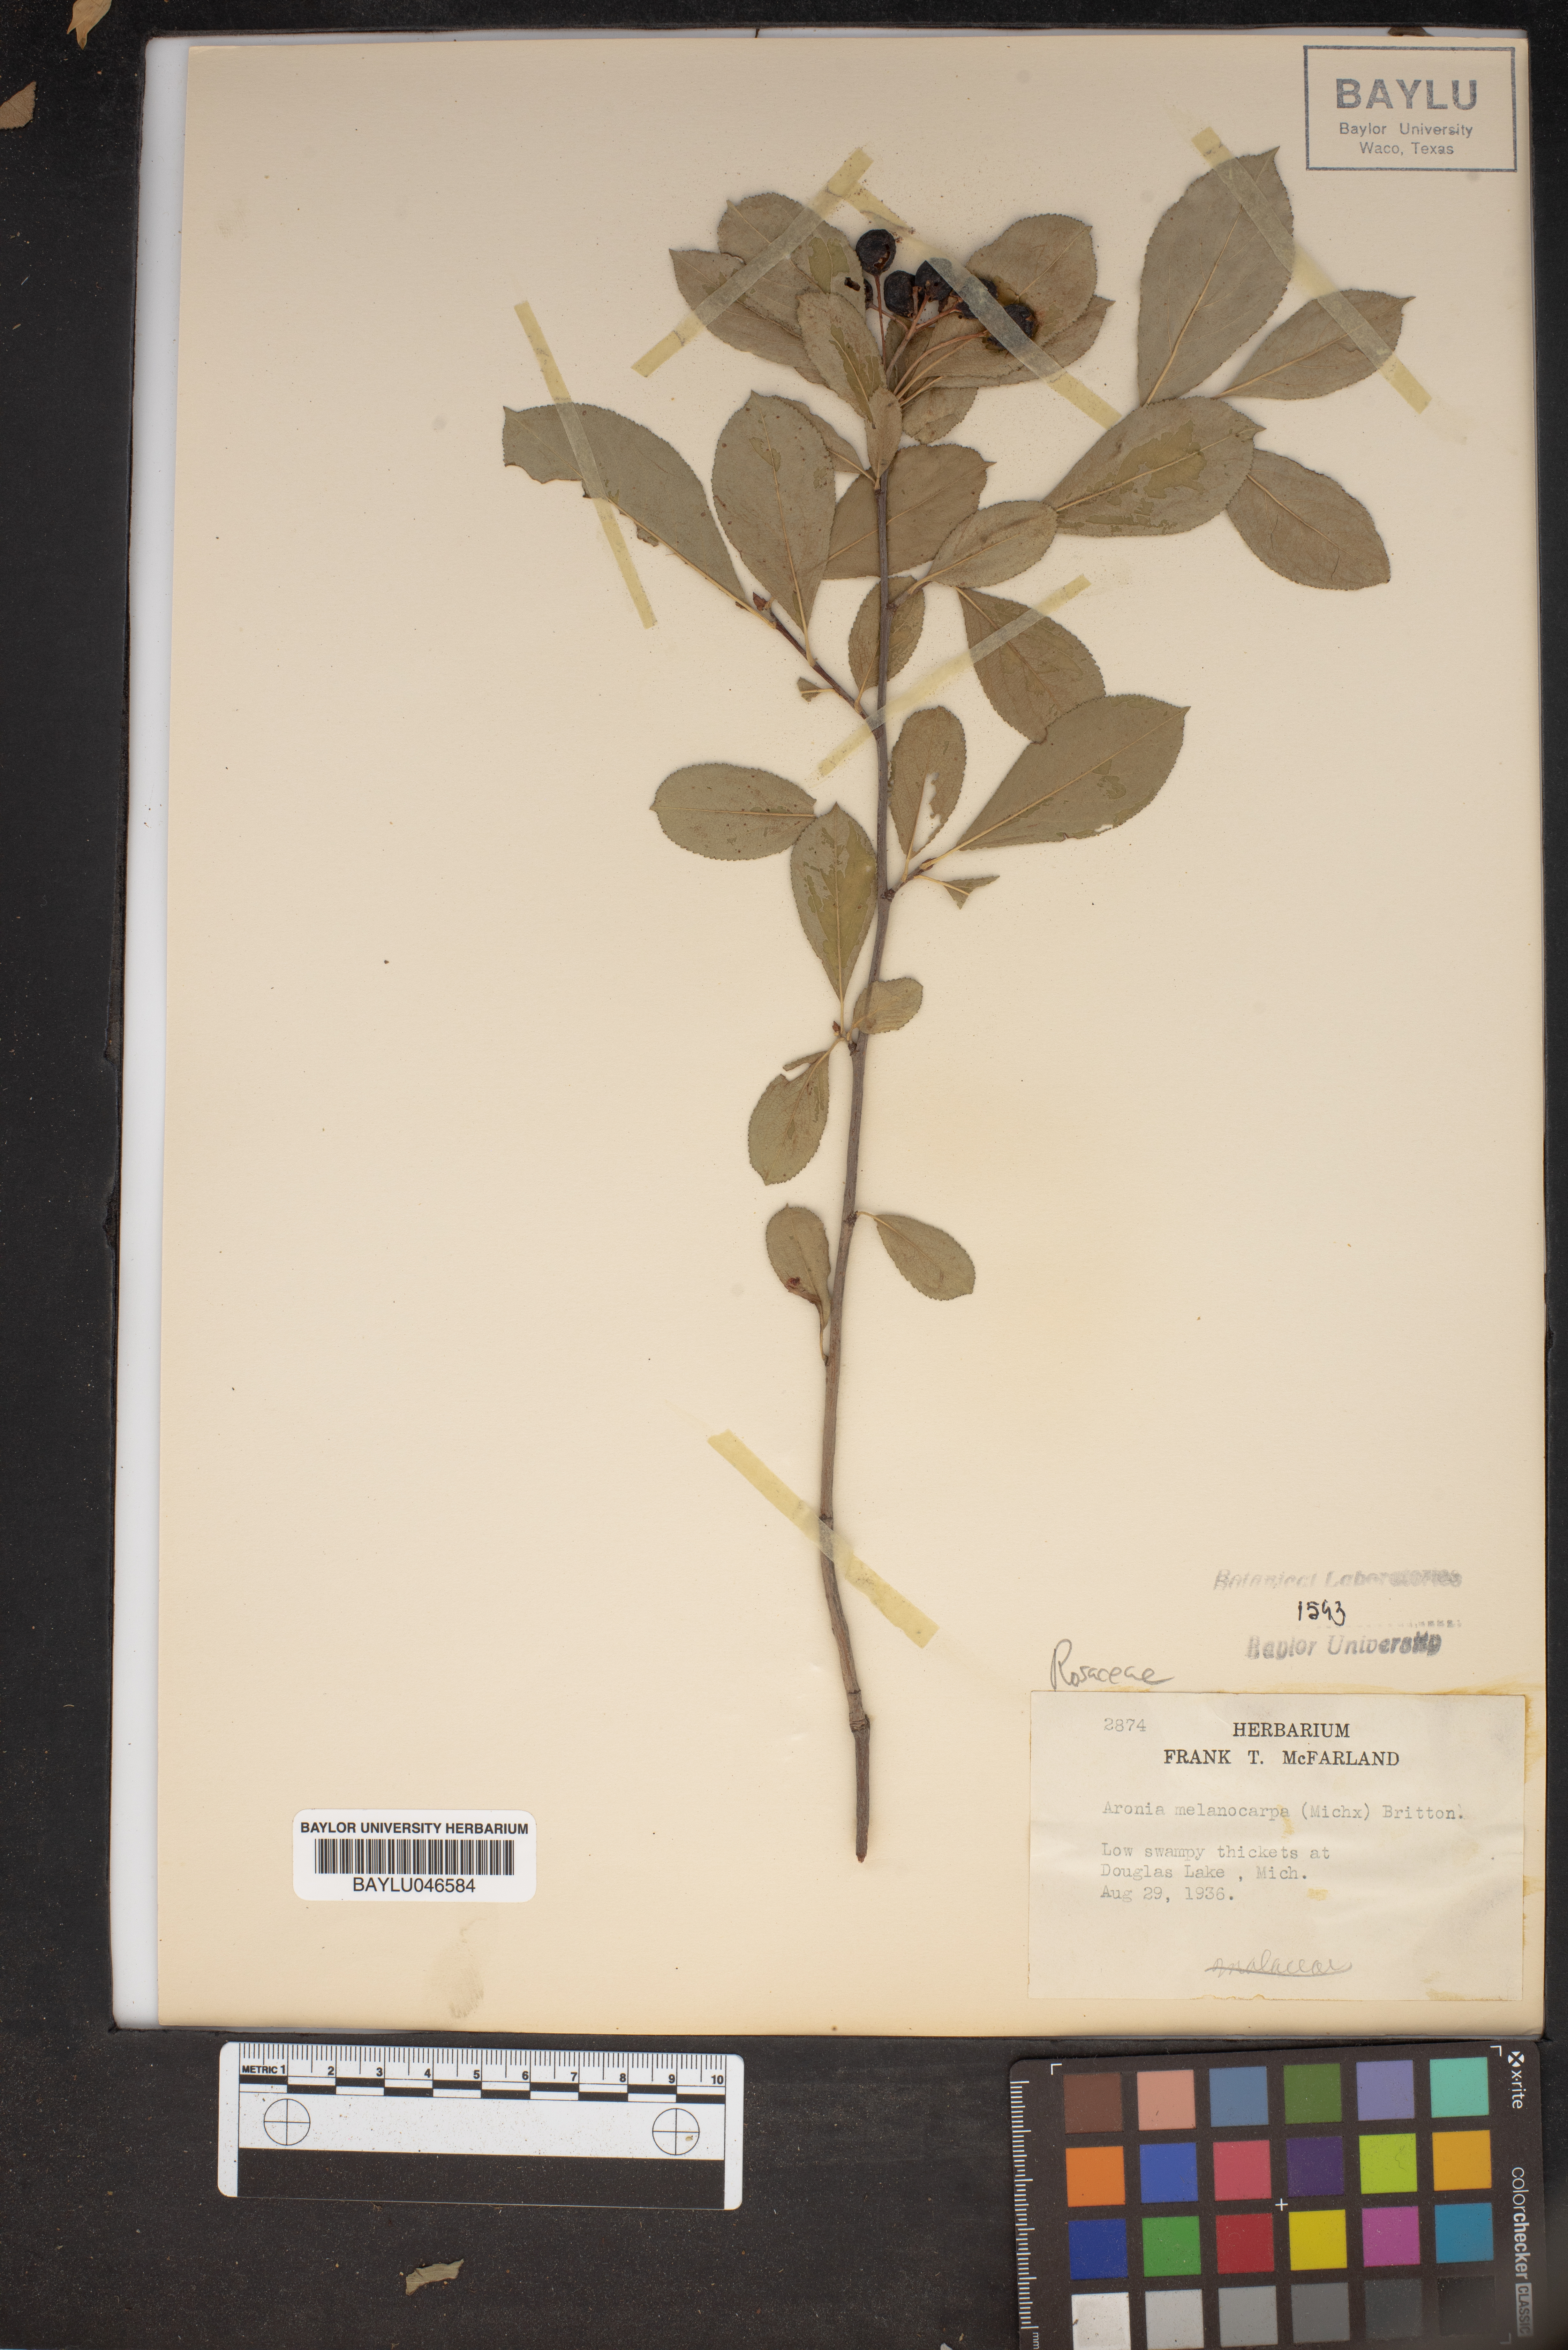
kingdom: Plantae
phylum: Tracheophyta
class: Magnoliopsida
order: Rosales
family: Rosaceae
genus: Aronia
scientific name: Aronia melanocarpa
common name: Black chokeberry
